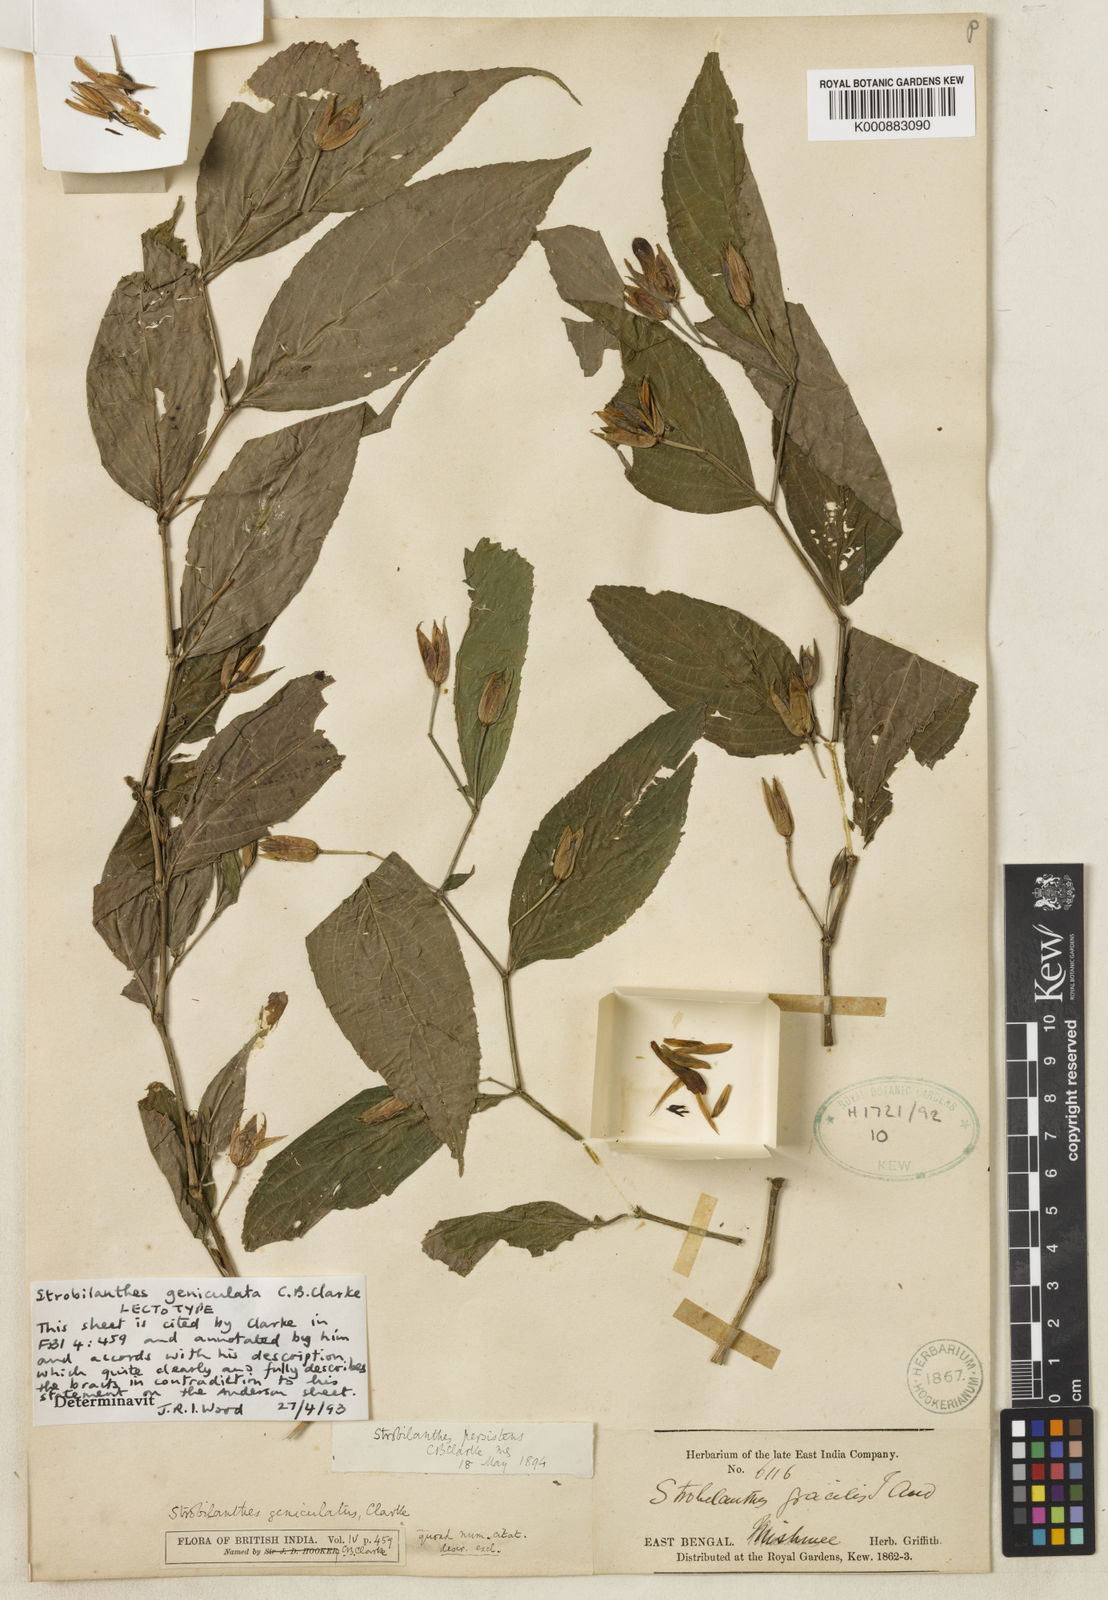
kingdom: Plantae
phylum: Tracheophyta
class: Magnoliopsida
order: Lamiales
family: Acanthaceae
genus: Strobilanthes
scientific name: Strobilanthes dimorphotricha
